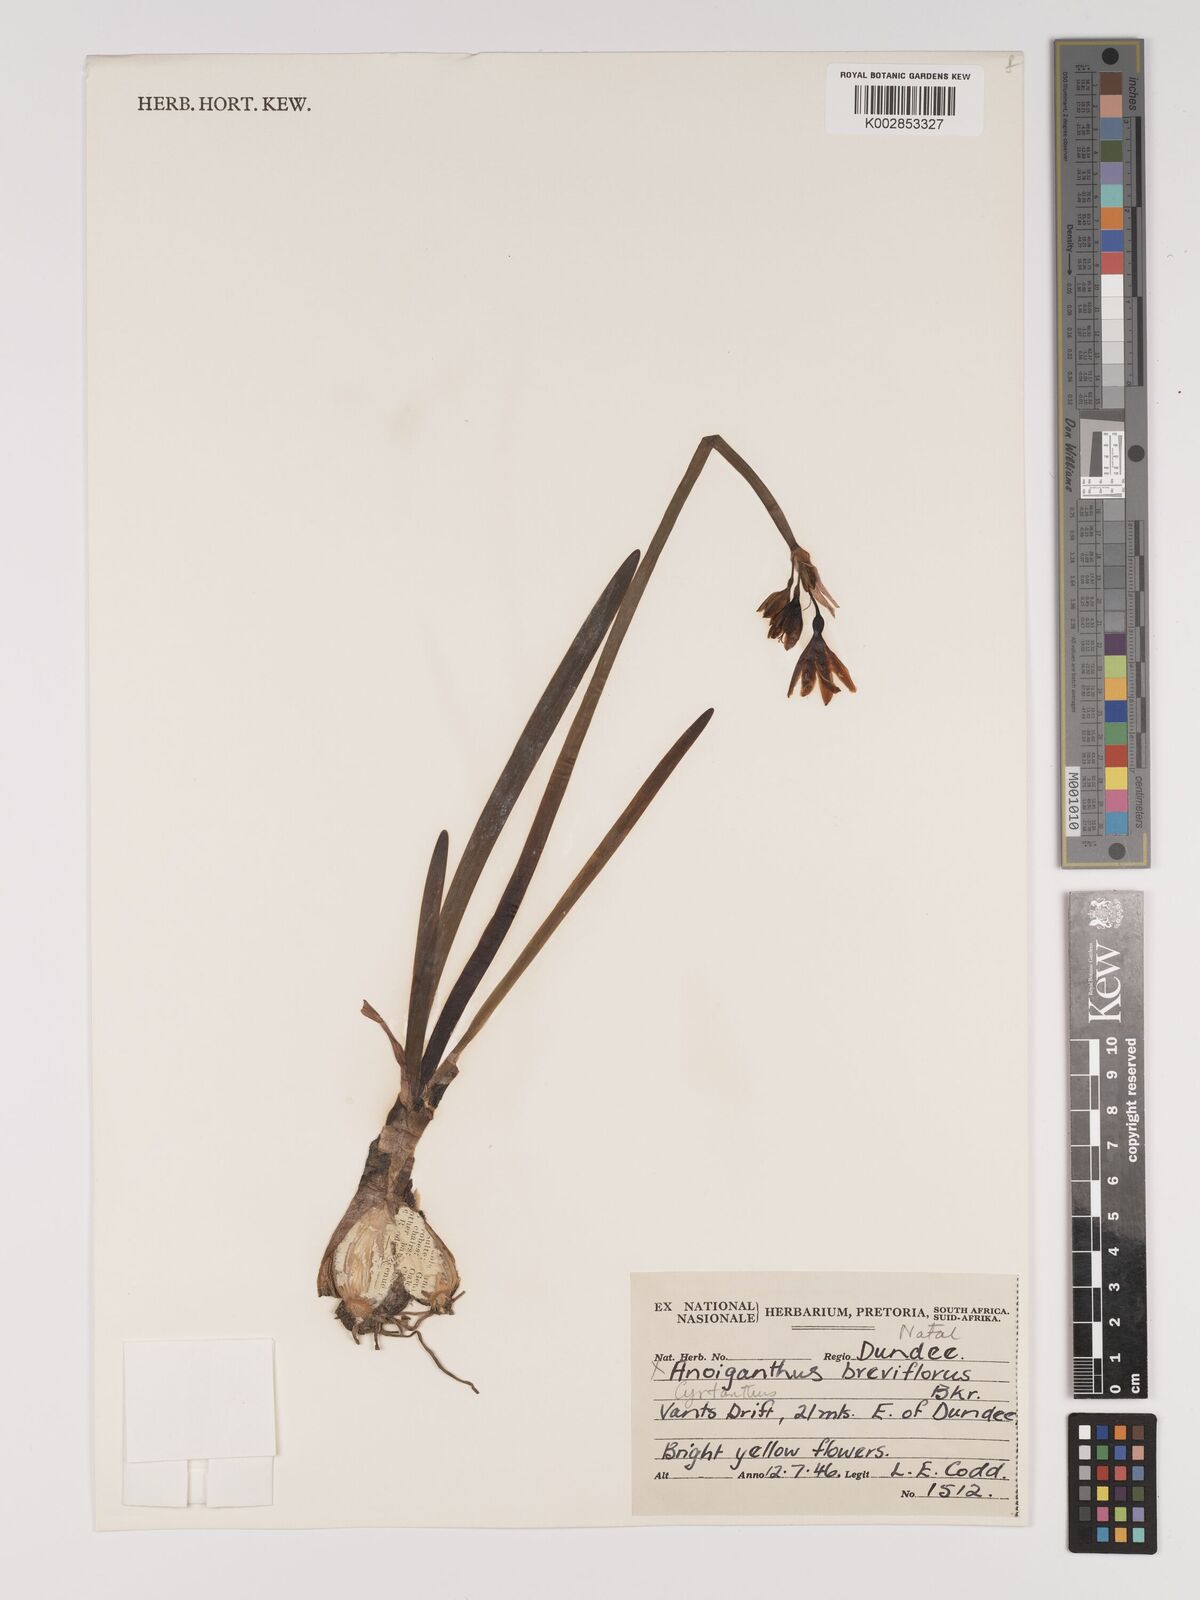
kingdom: Plantae
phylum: Tracheophyta
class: Liliopsida
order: Asparagales
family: Amaryllidaceae
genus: Cyrtanthus
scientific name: Cyrtanthus breviflorus
